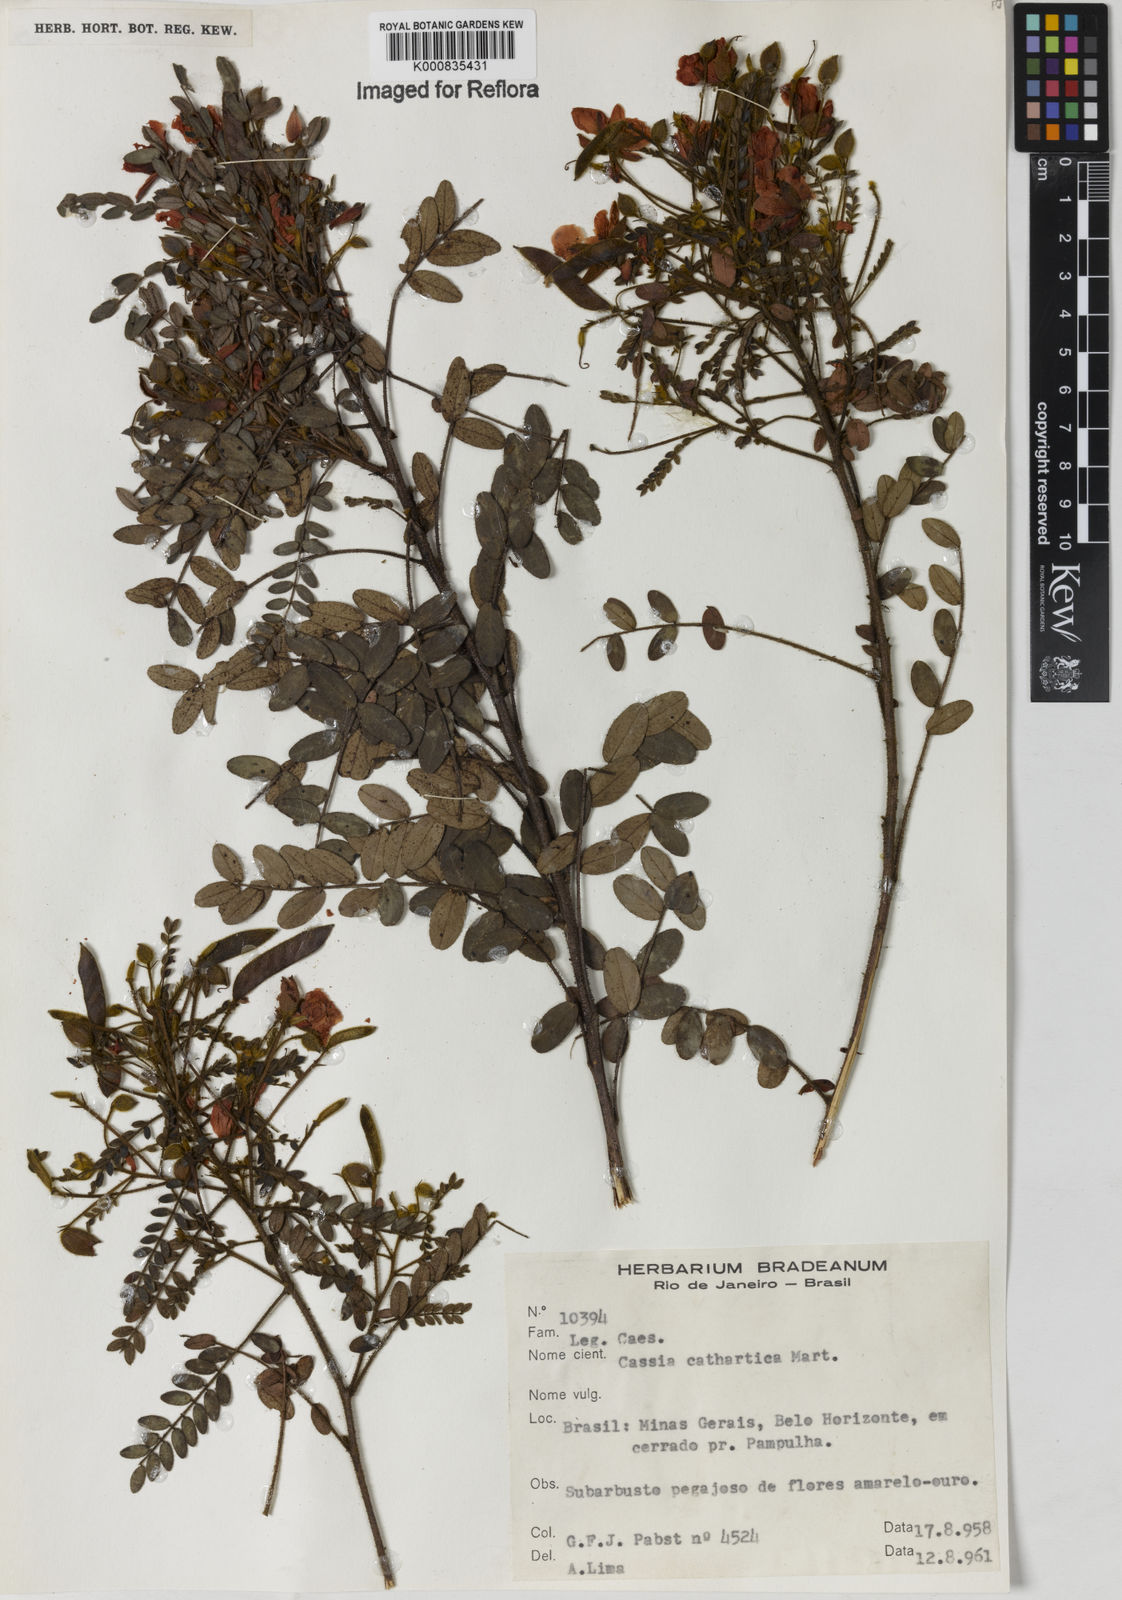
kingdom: Plantae
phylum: Tracheophyta
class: Magnoliopsida
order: Fabales
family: Fabaceae
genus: Chamaecrista
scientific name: Chamaecrista cathartica
